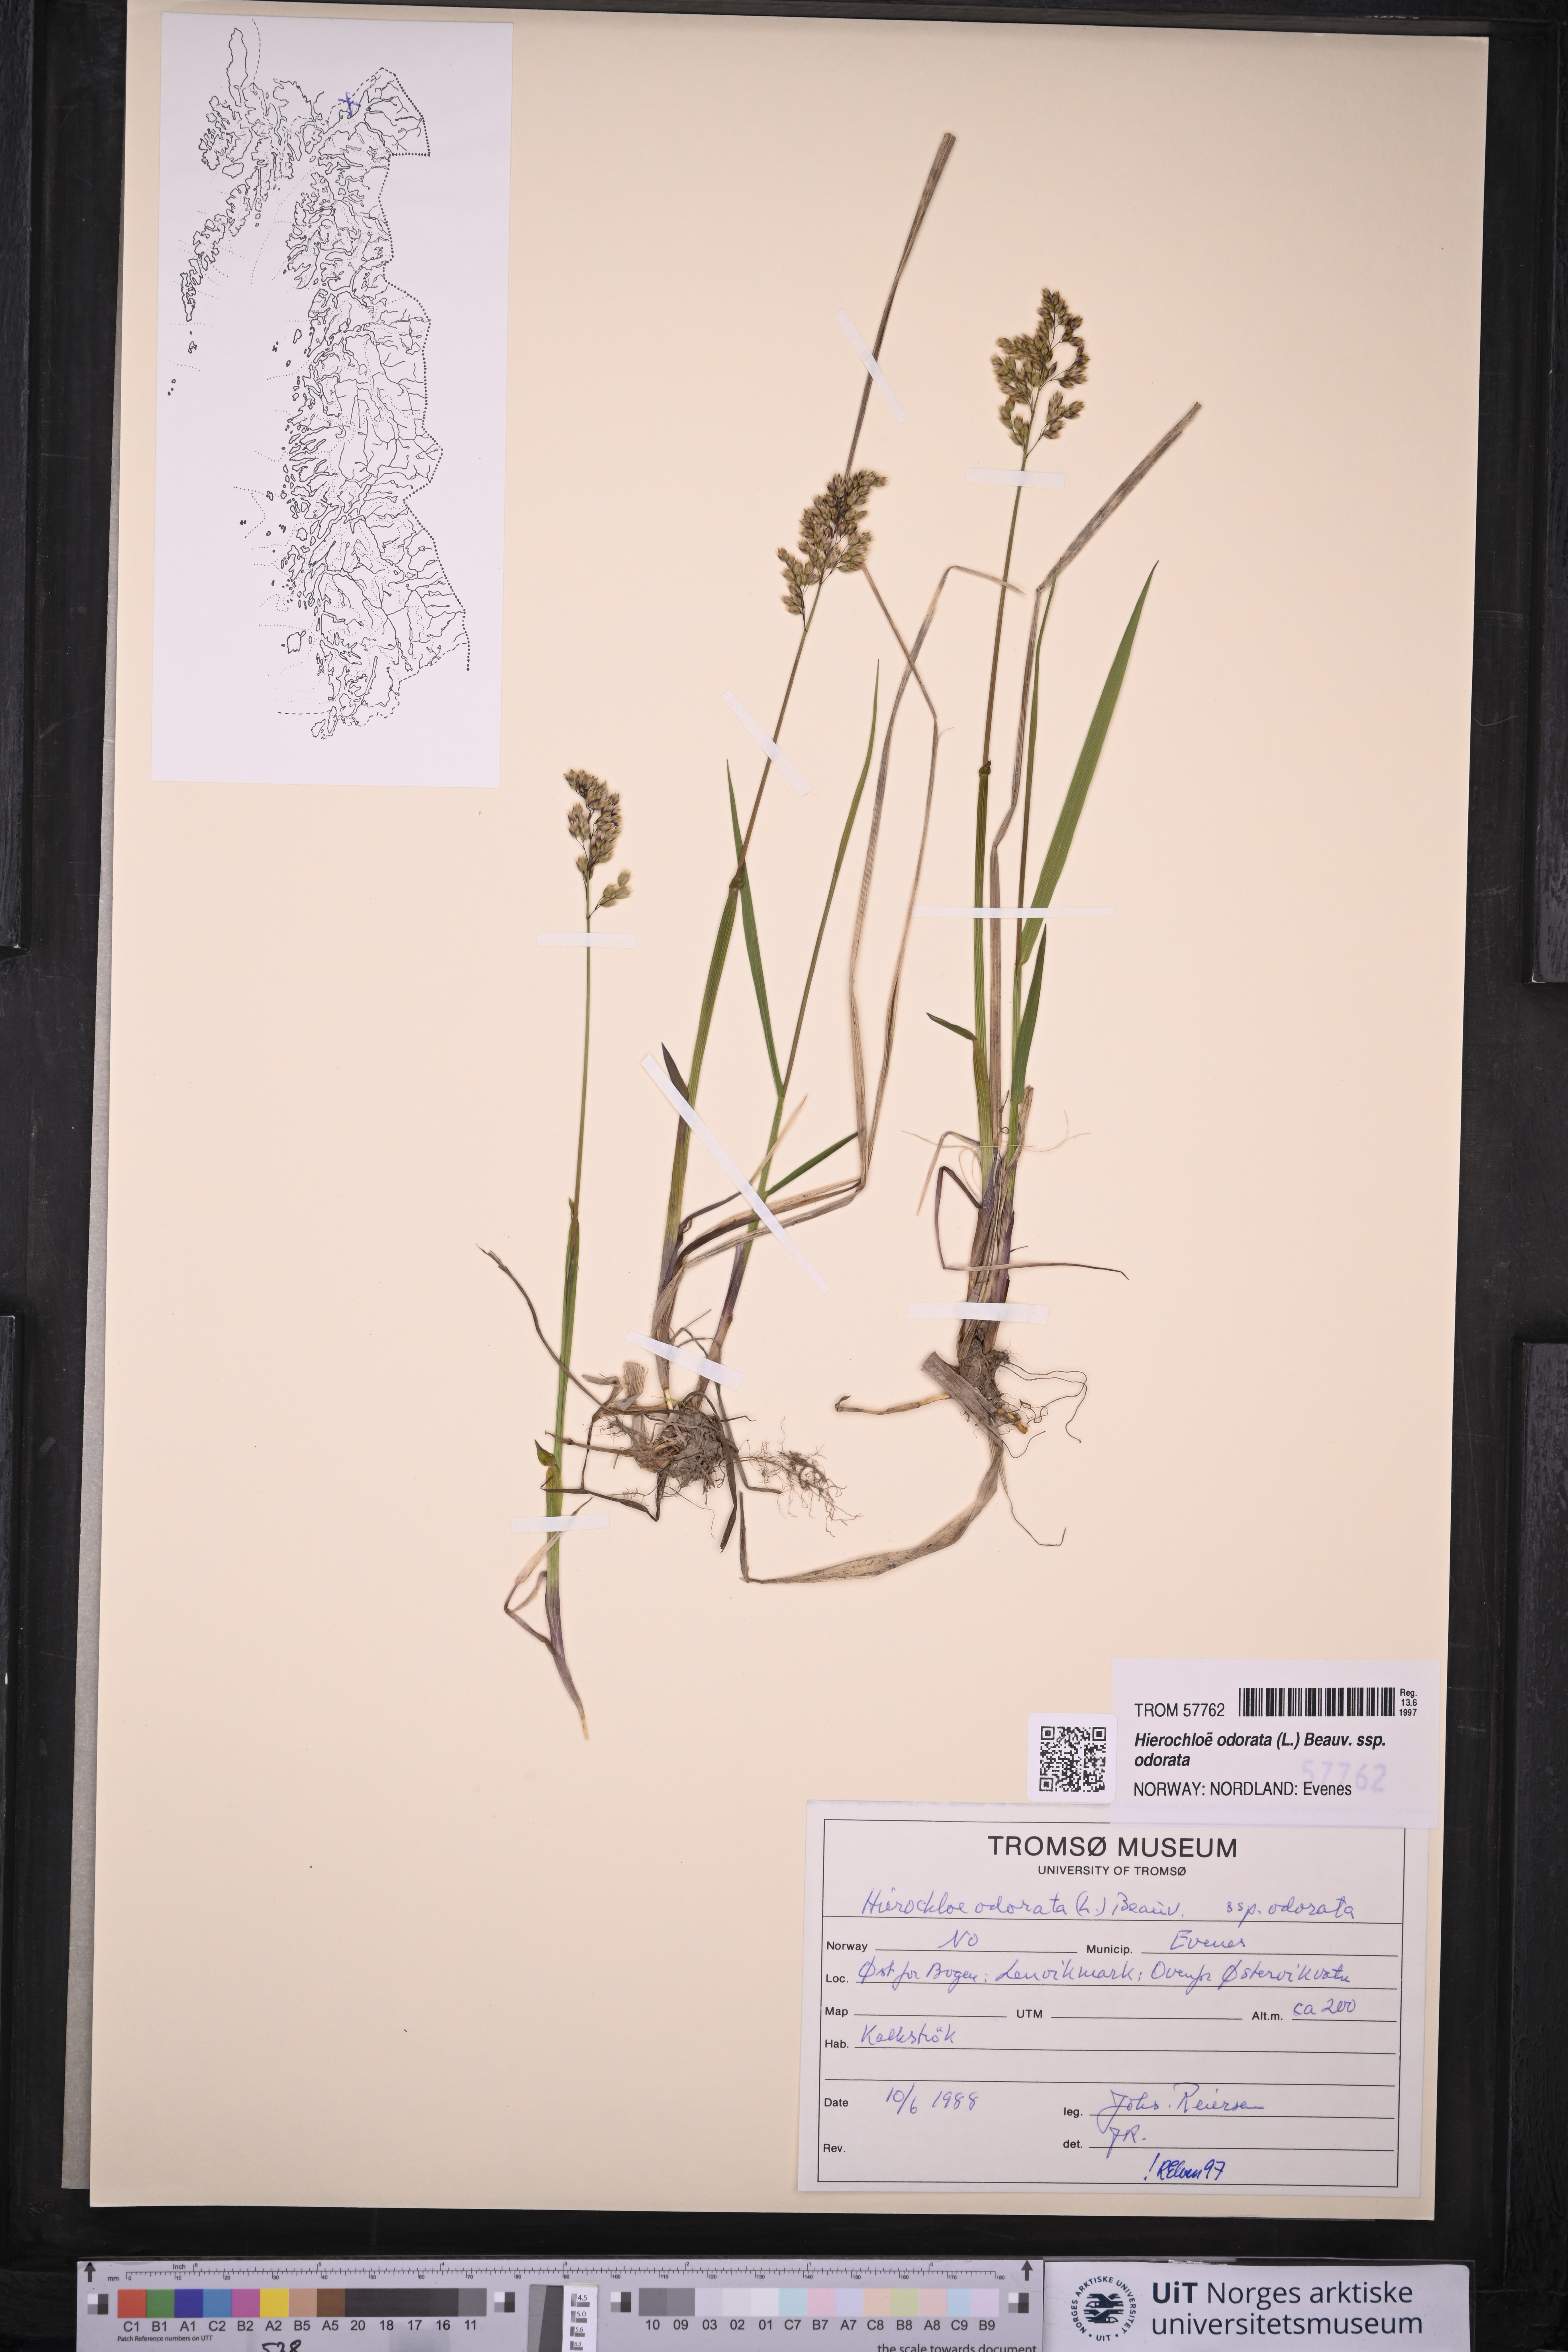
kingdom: Plantae
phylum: Tracheophyta
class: Liliopsida
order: Poales
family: Poaceae
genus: Anthoxanthum
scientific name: Anthoxanthum nitens
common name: Holy grass
